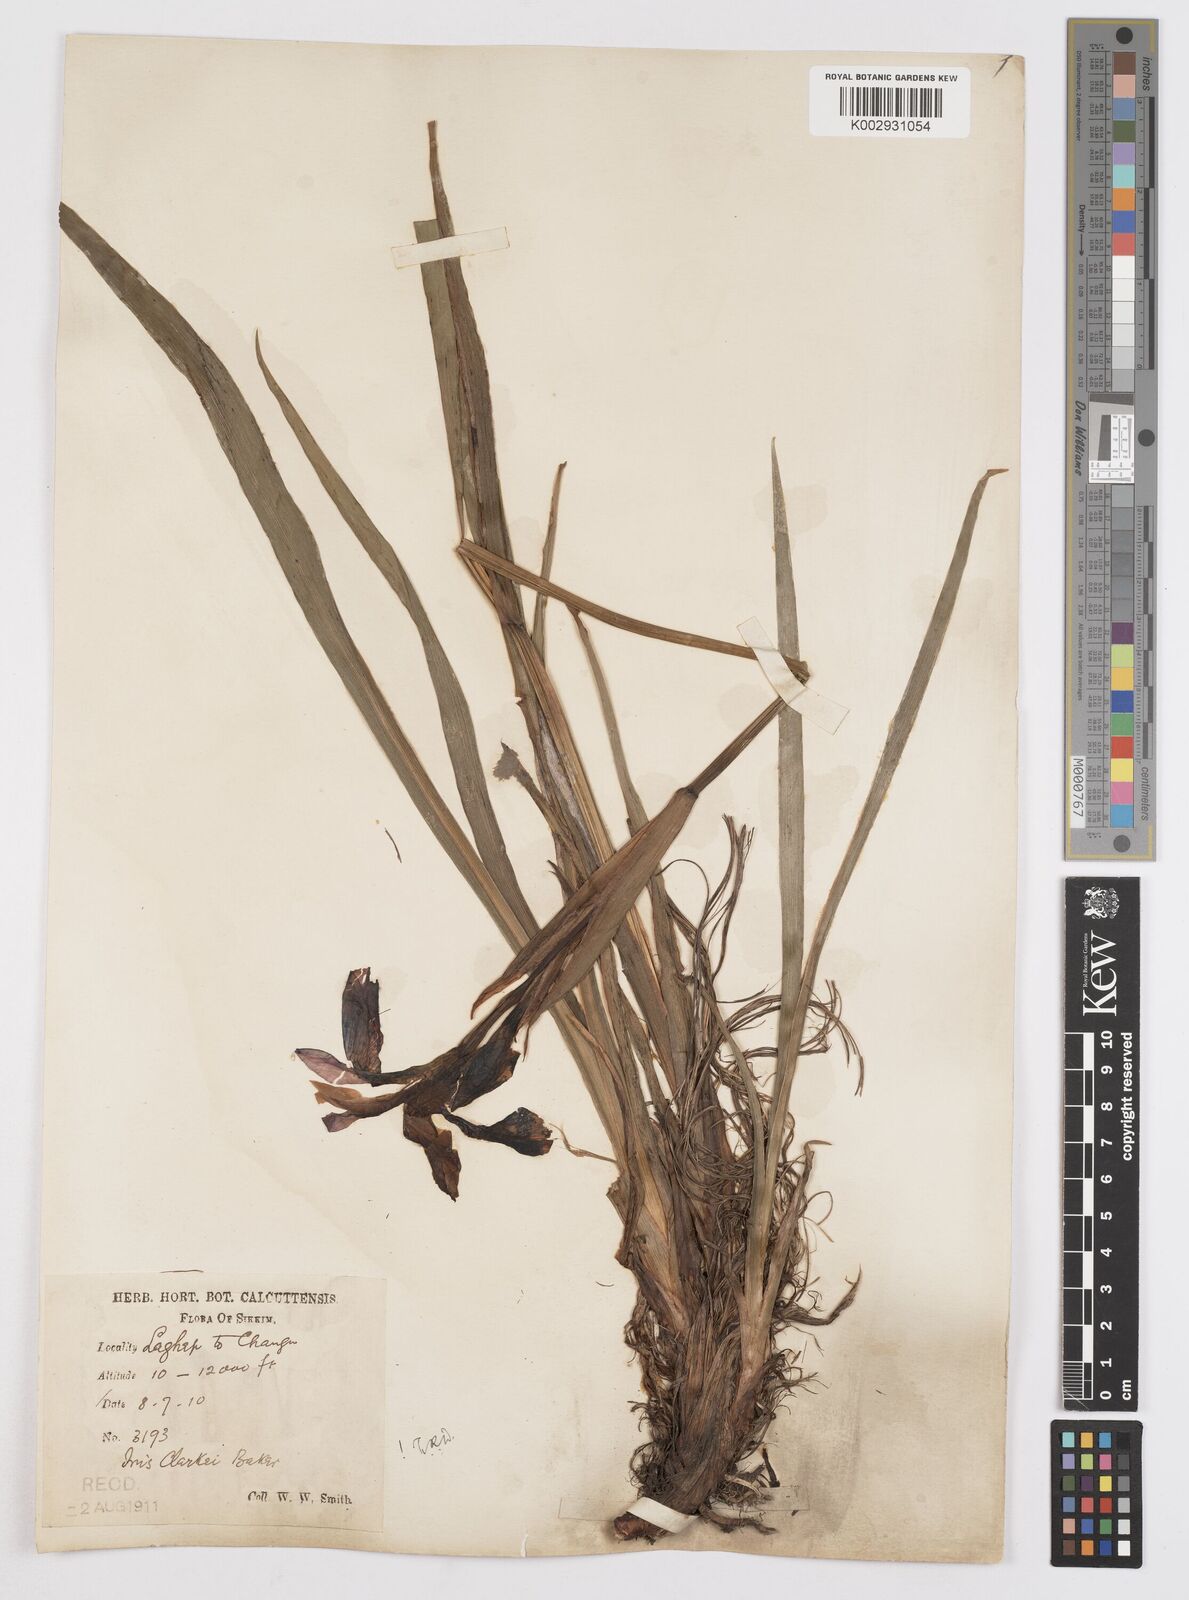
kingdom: Plantae
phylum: Tracheophyta
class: Liliopsida
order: Asparagales
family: Iridaceae
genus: Iris
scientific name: Iris clarkei
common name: Tibet iris
